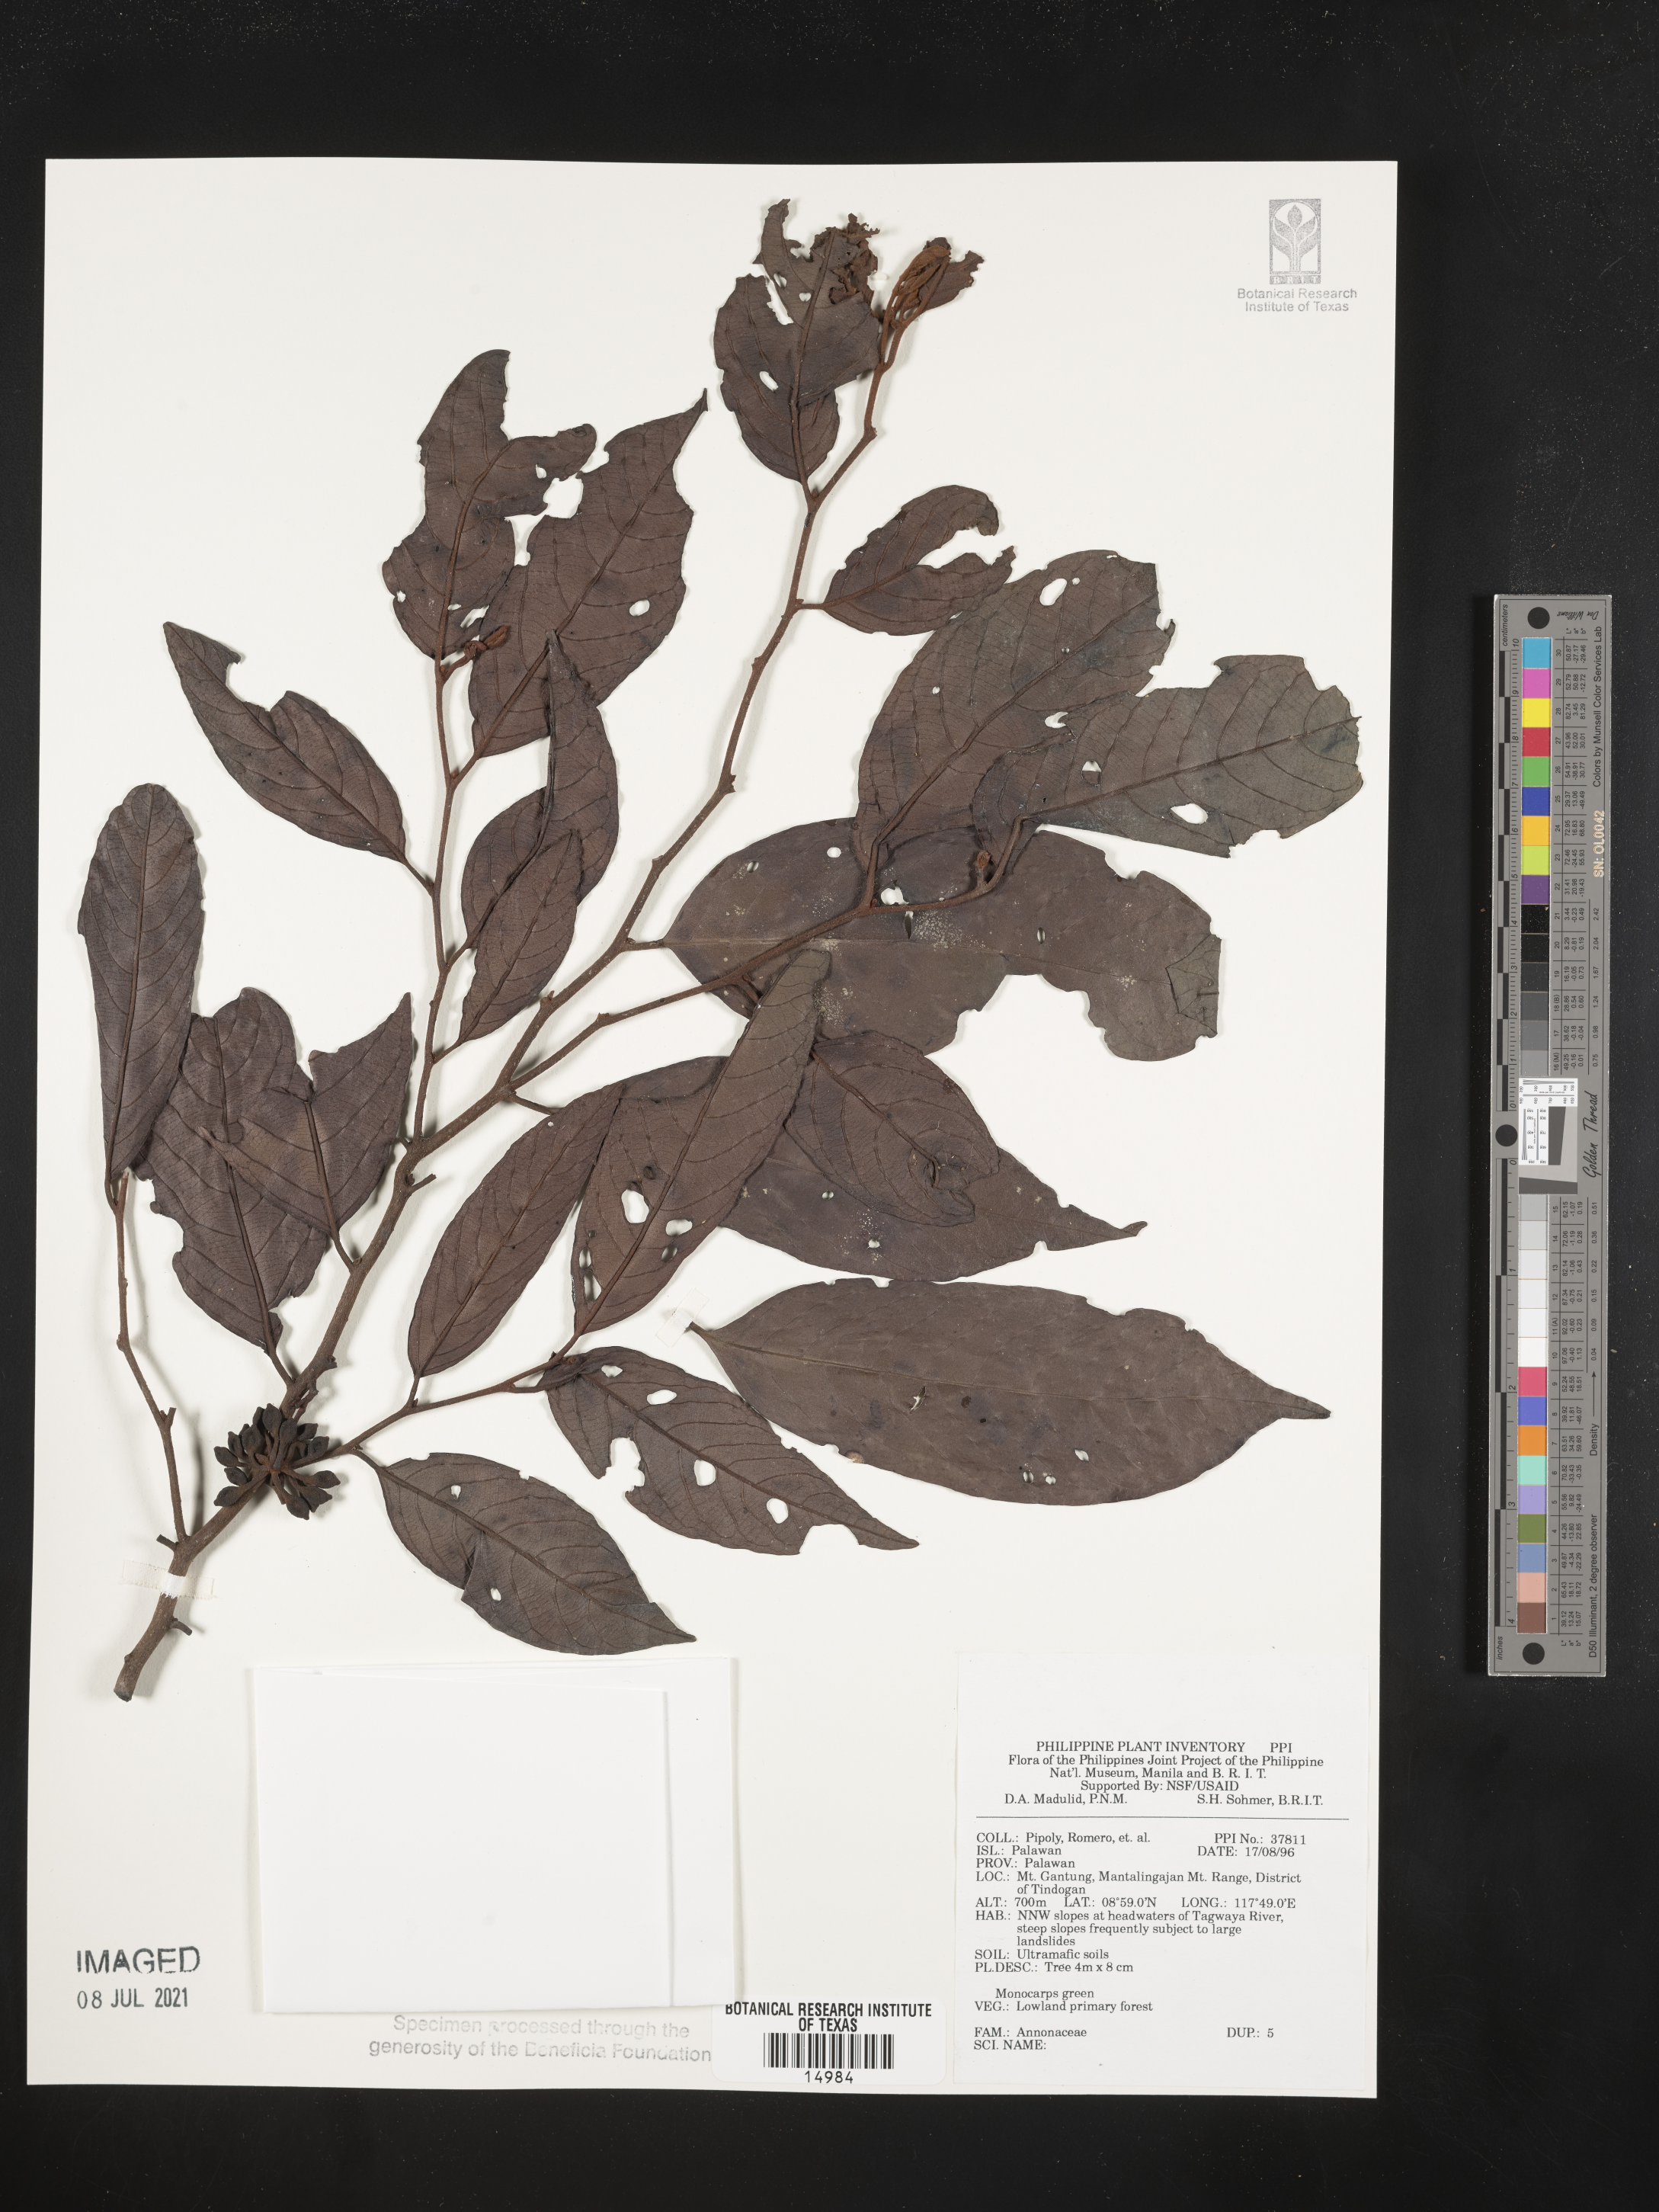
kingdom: Plantae
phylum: Tracheophyta
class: Magnoliopsida
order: Magnoliales
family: Annonaceae
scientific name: Annonaceae
